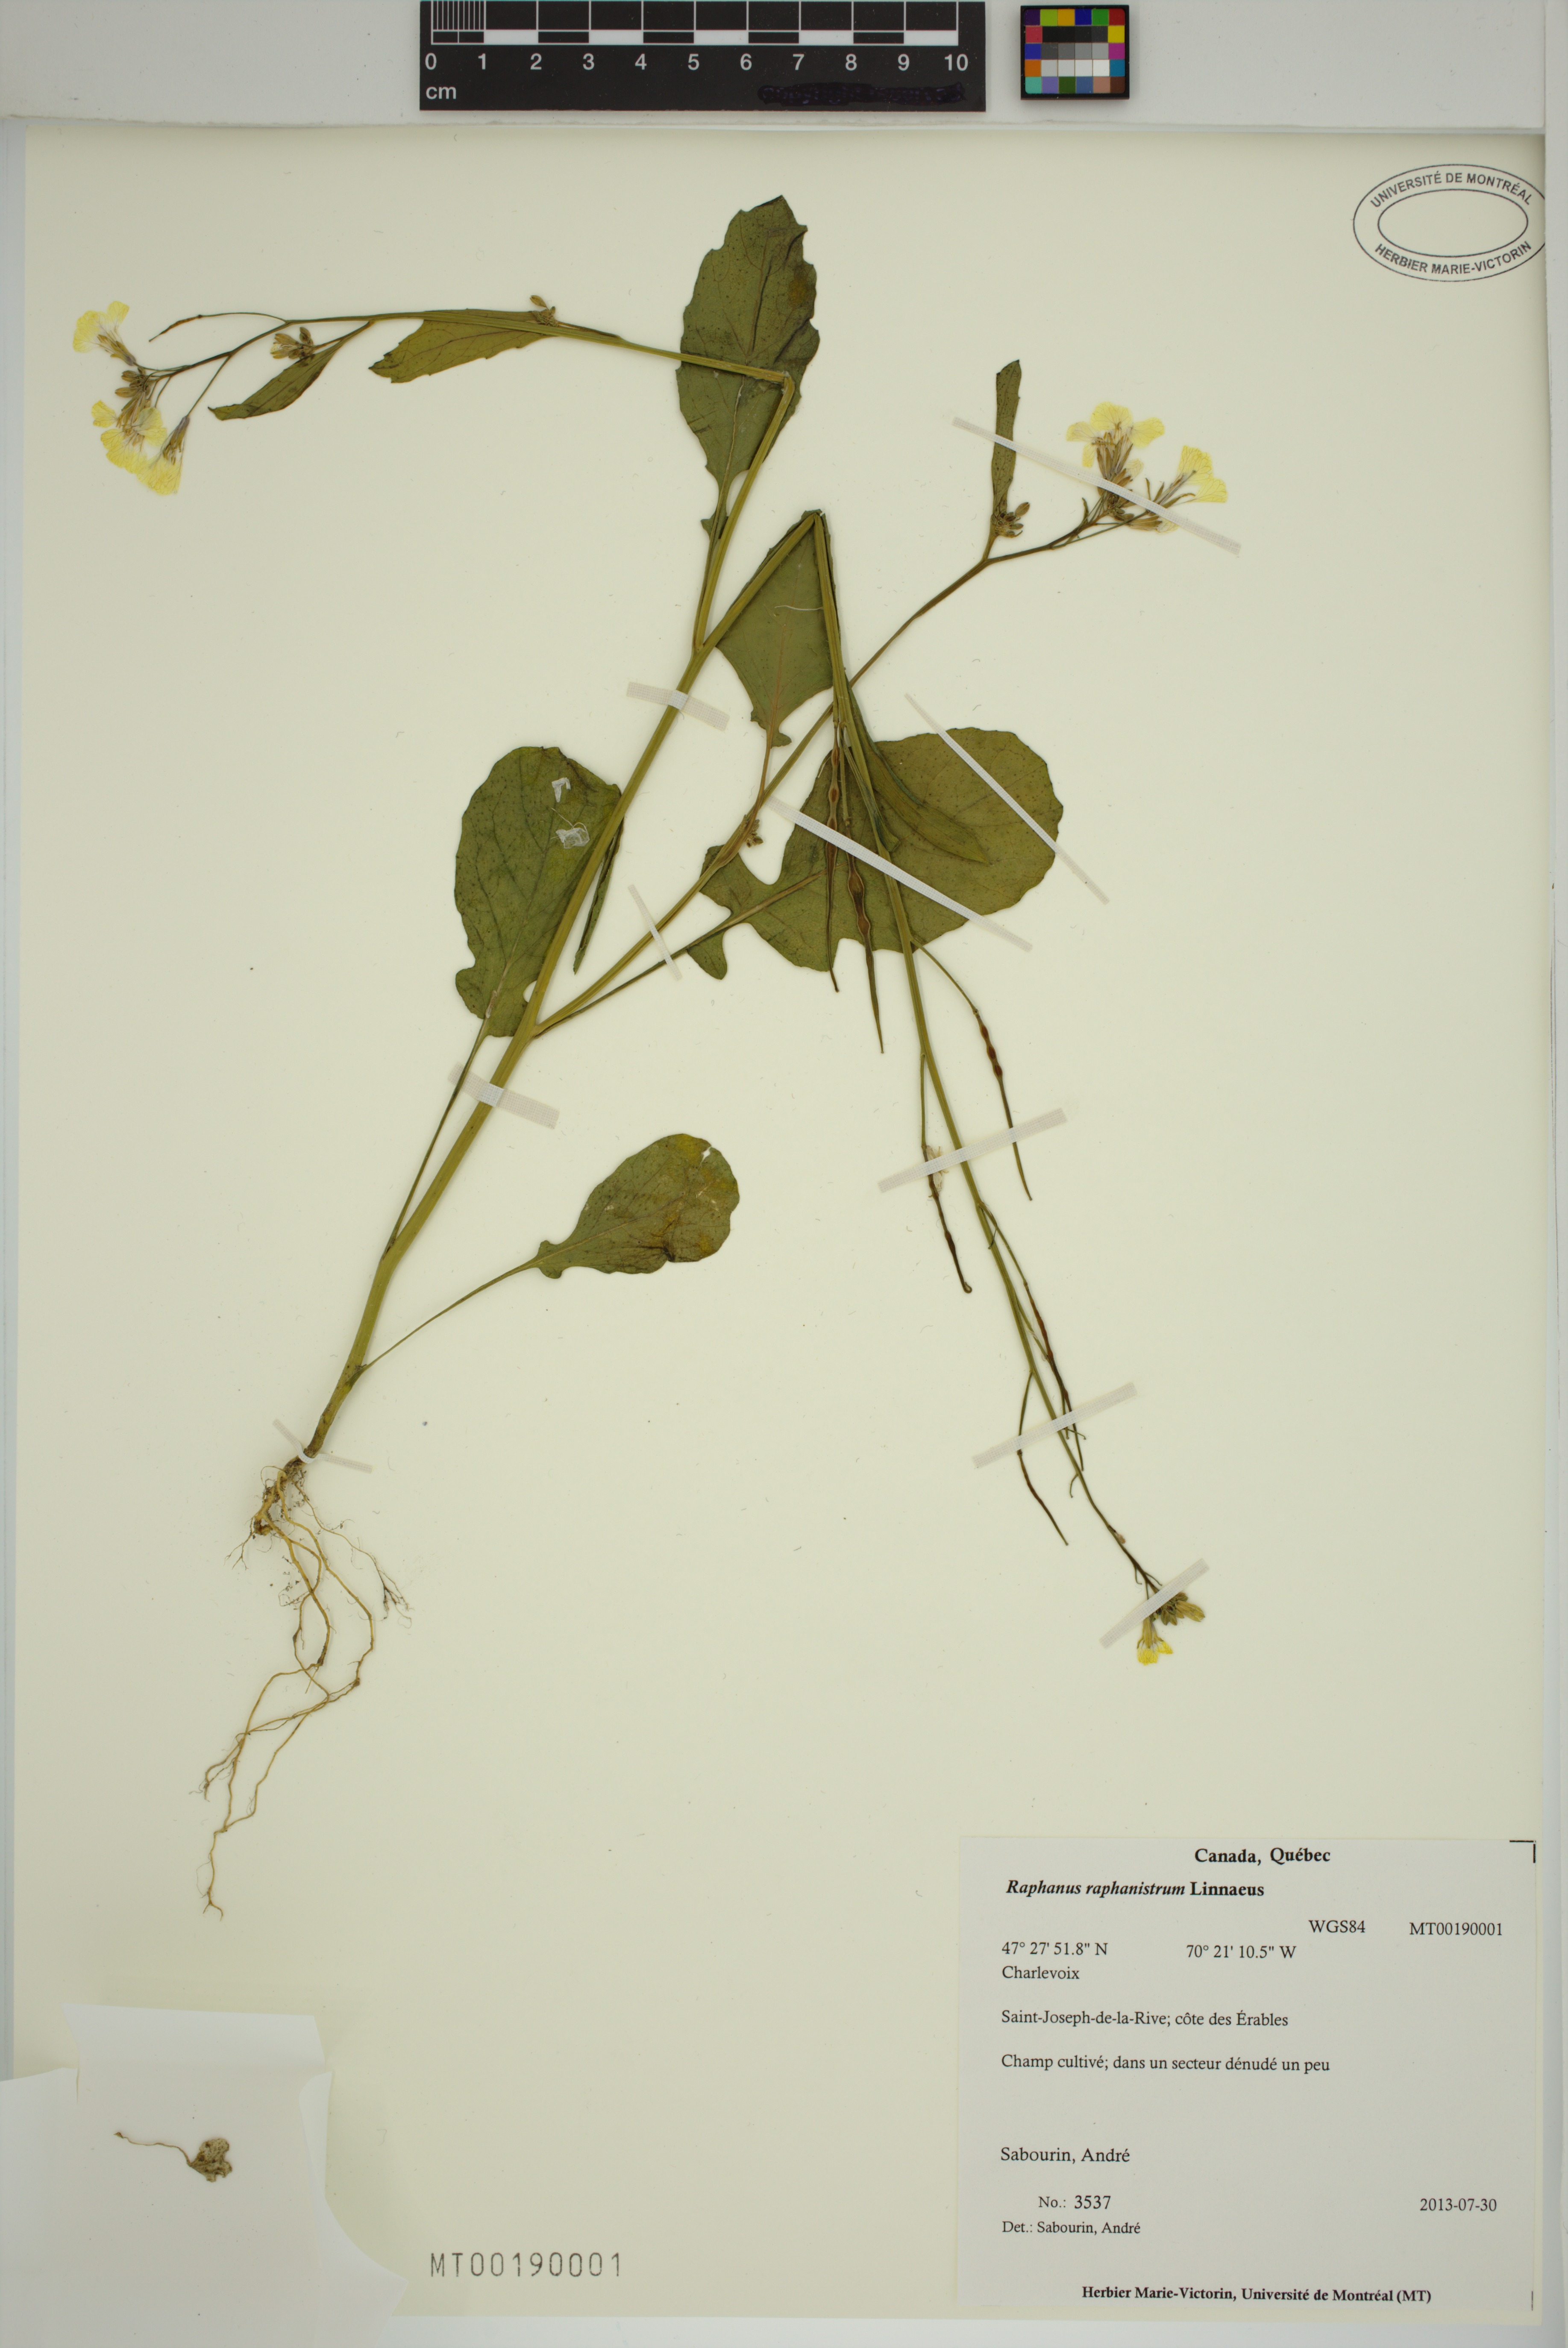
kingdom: Plantae
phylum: Tracheophyta
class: Magnoliopsida
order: Brassicales
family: Brassicaceae
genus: Raphanus
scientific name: Raphanus raphanistrum
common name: Wild radish
